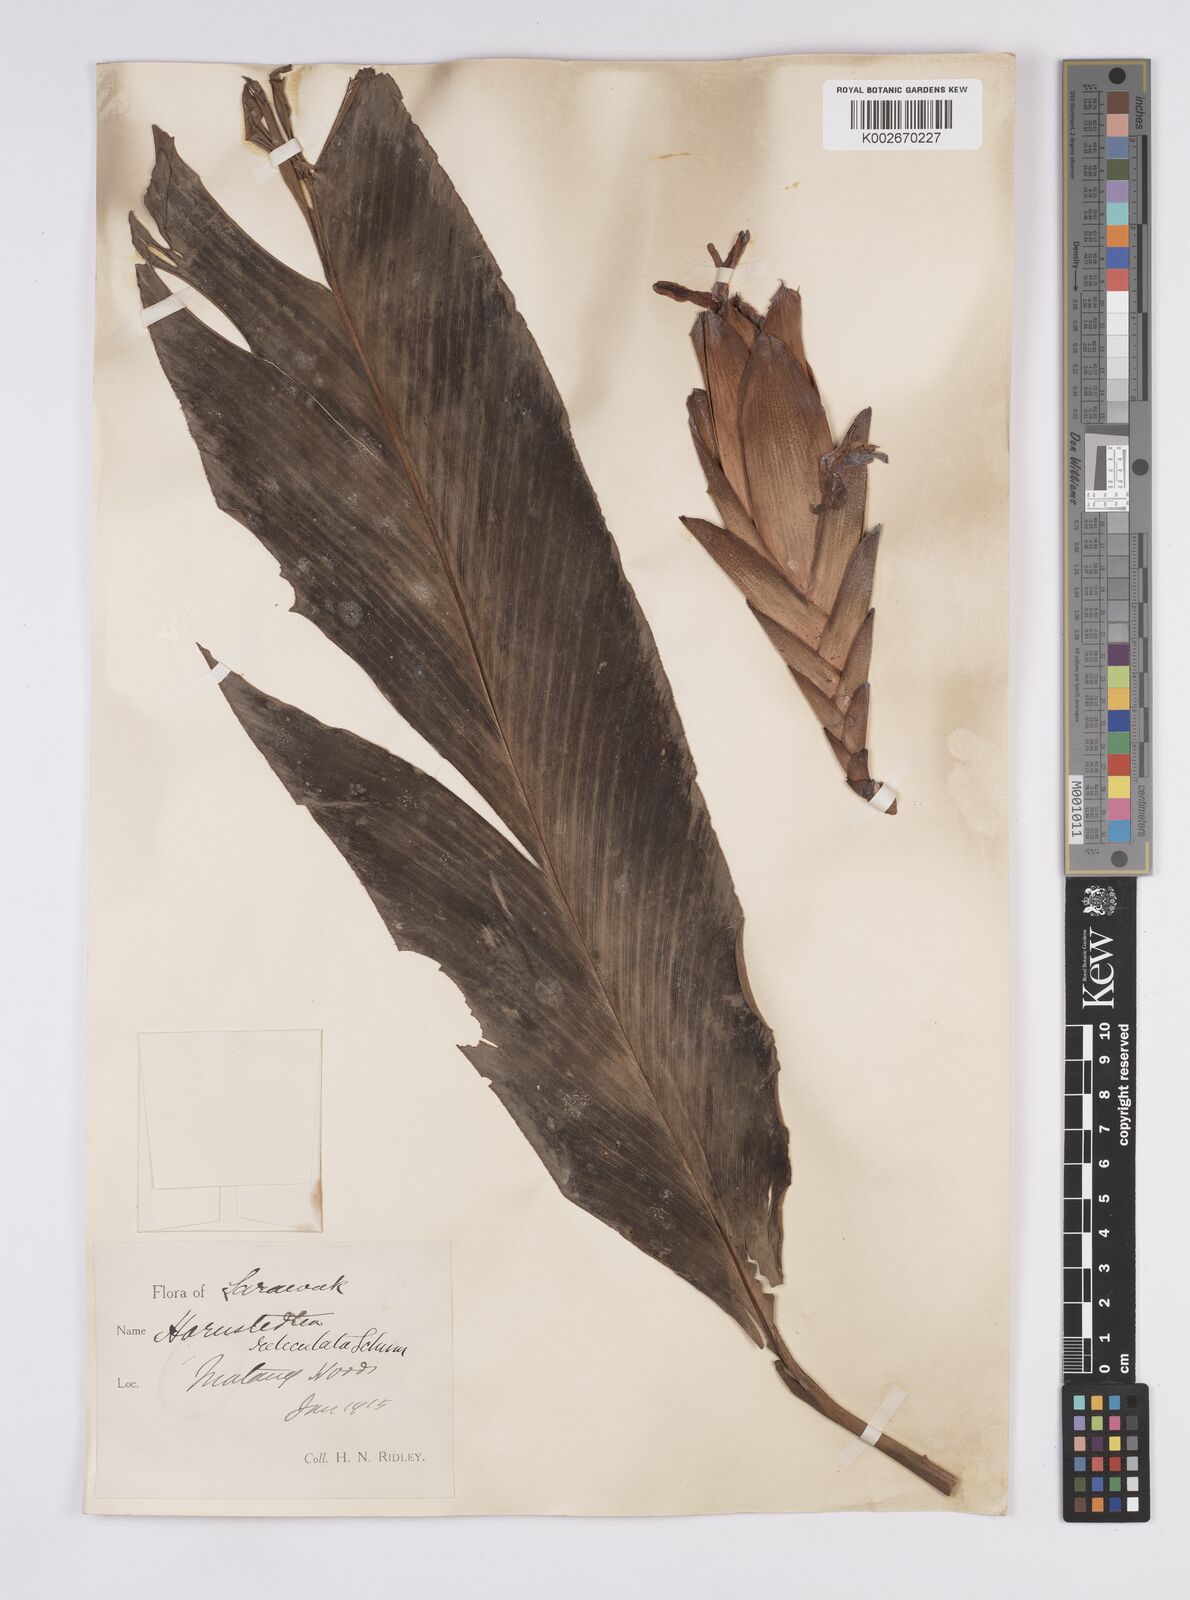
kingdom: Plantae
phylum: Tracheophyta
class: Liliopsida
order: Zingiberales
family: Zingiberaceae
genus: Hornstedtia
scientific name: Hornstedtia reticulata
